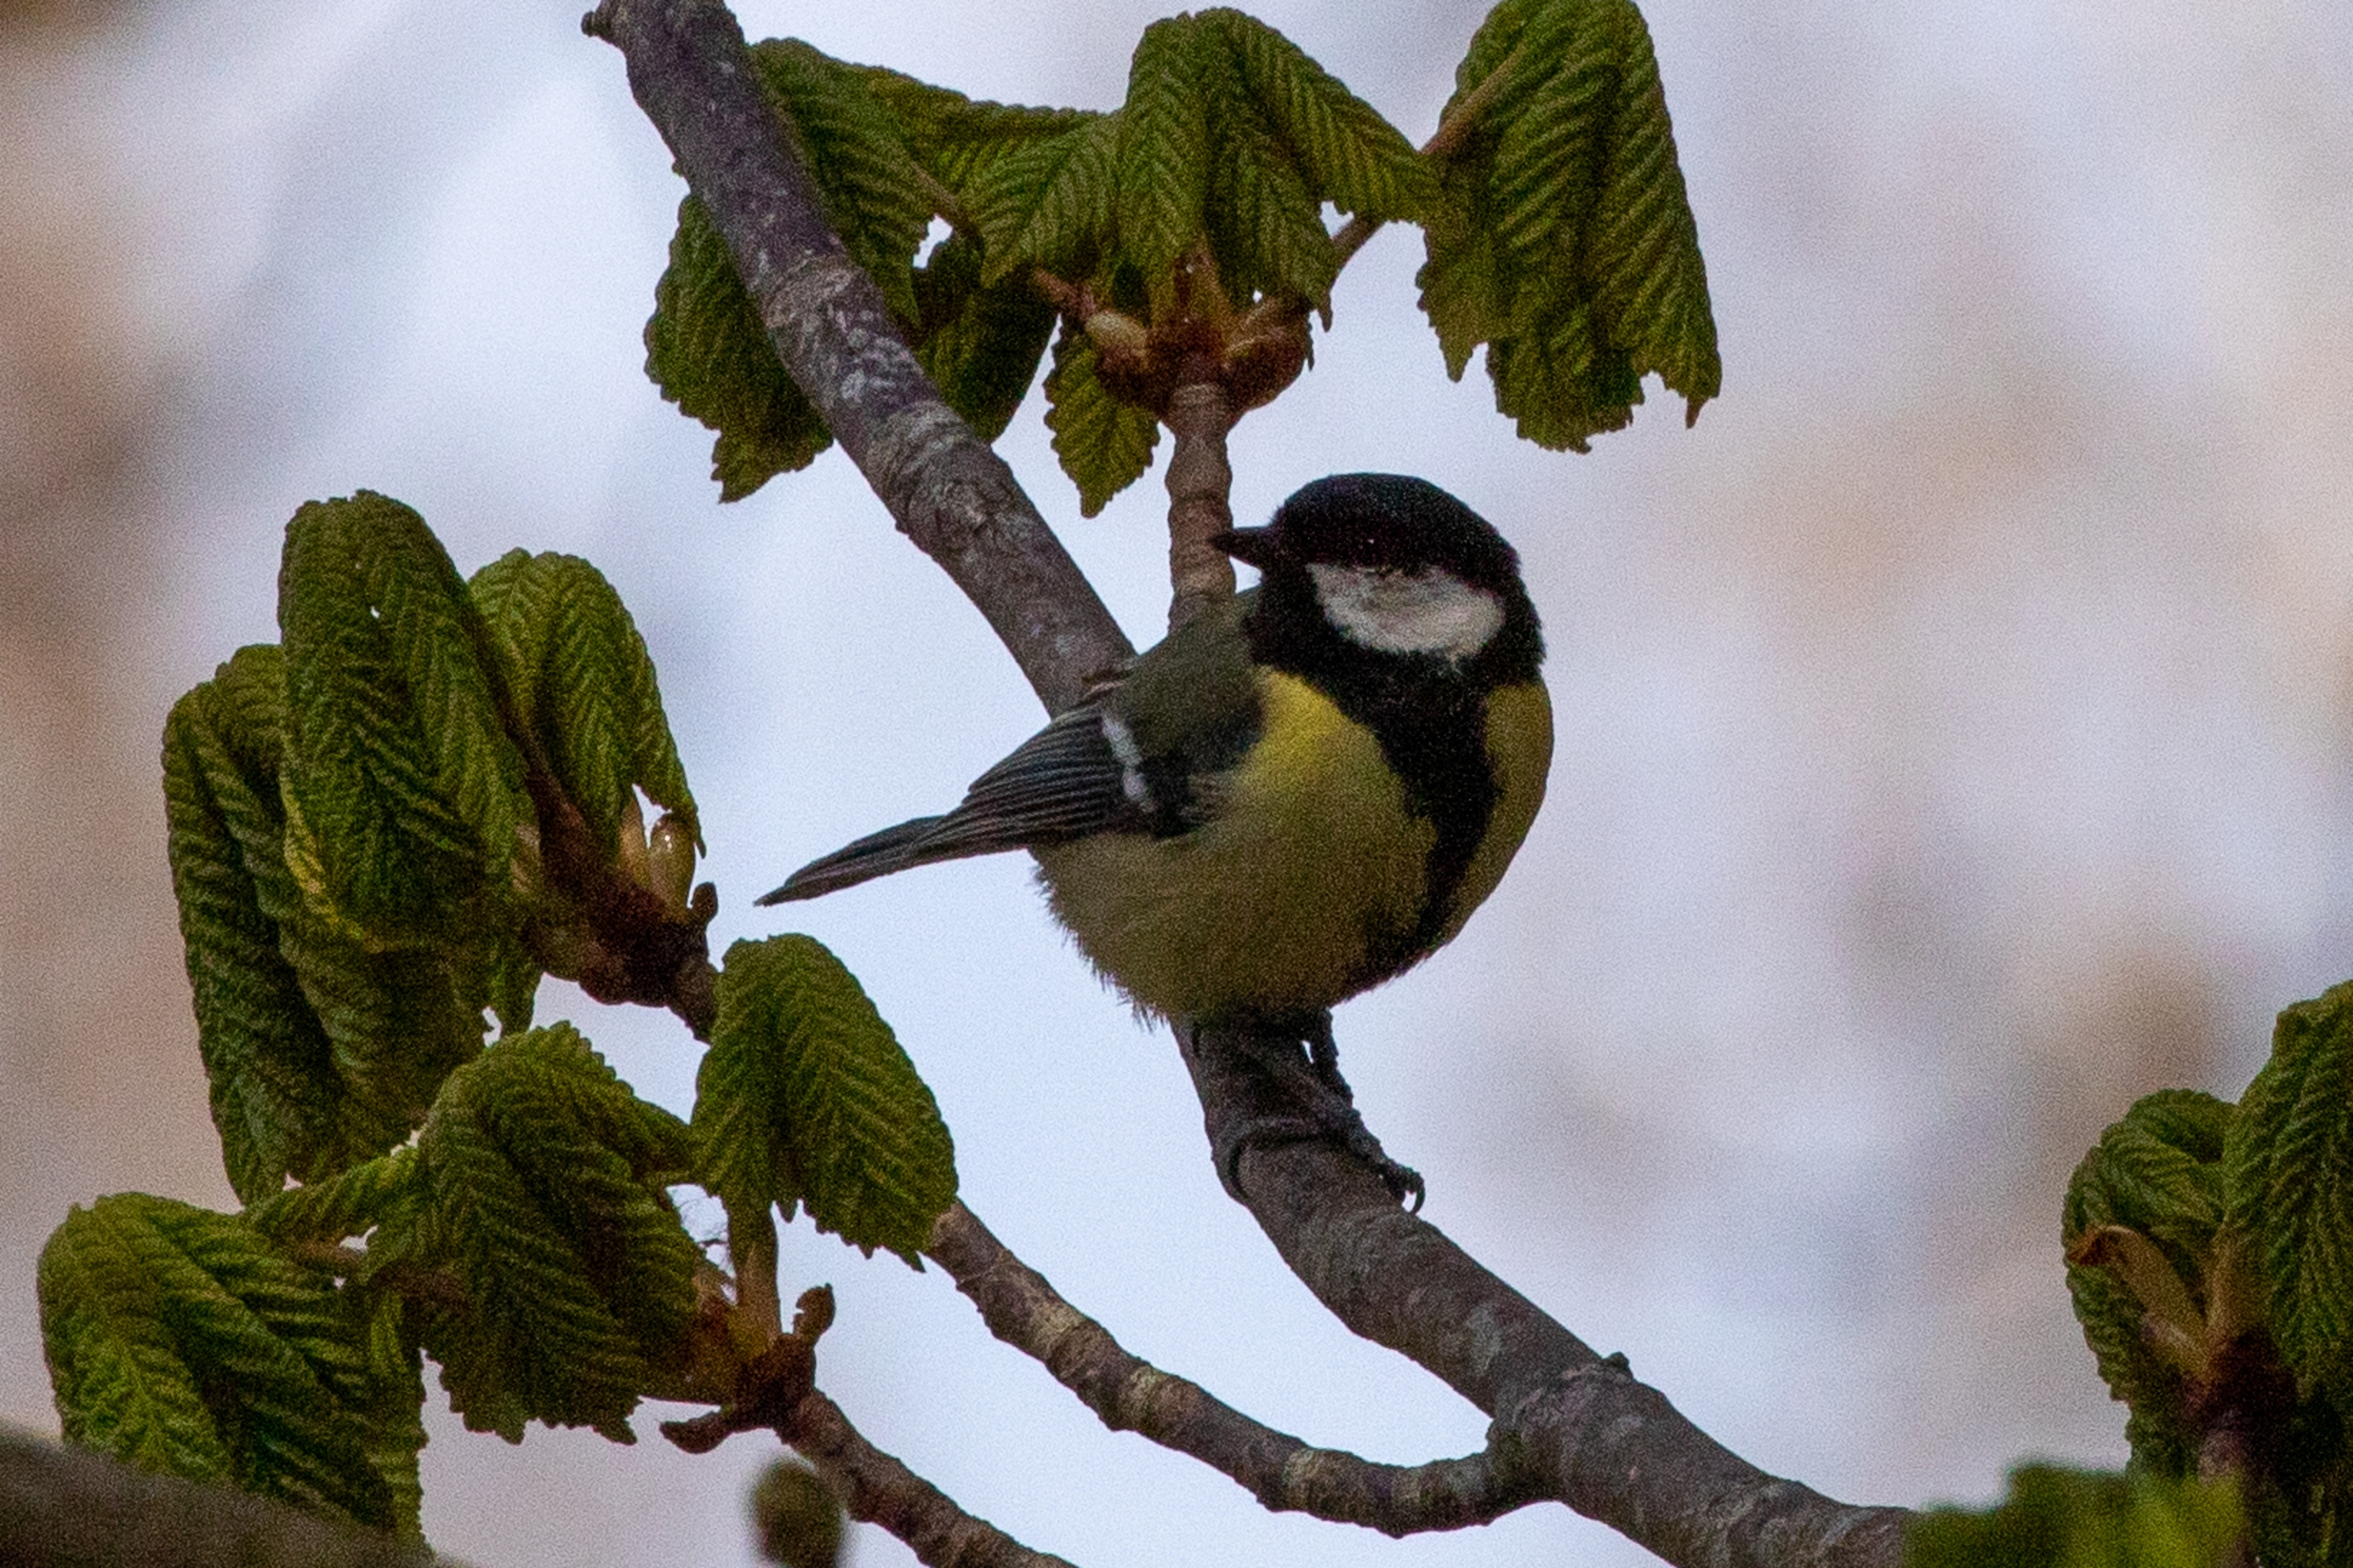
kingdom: Animalia
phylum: Chordata
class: Aves
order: Passeriformes
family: Paridae
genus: Parus
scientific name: Parus major
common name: Musvit
